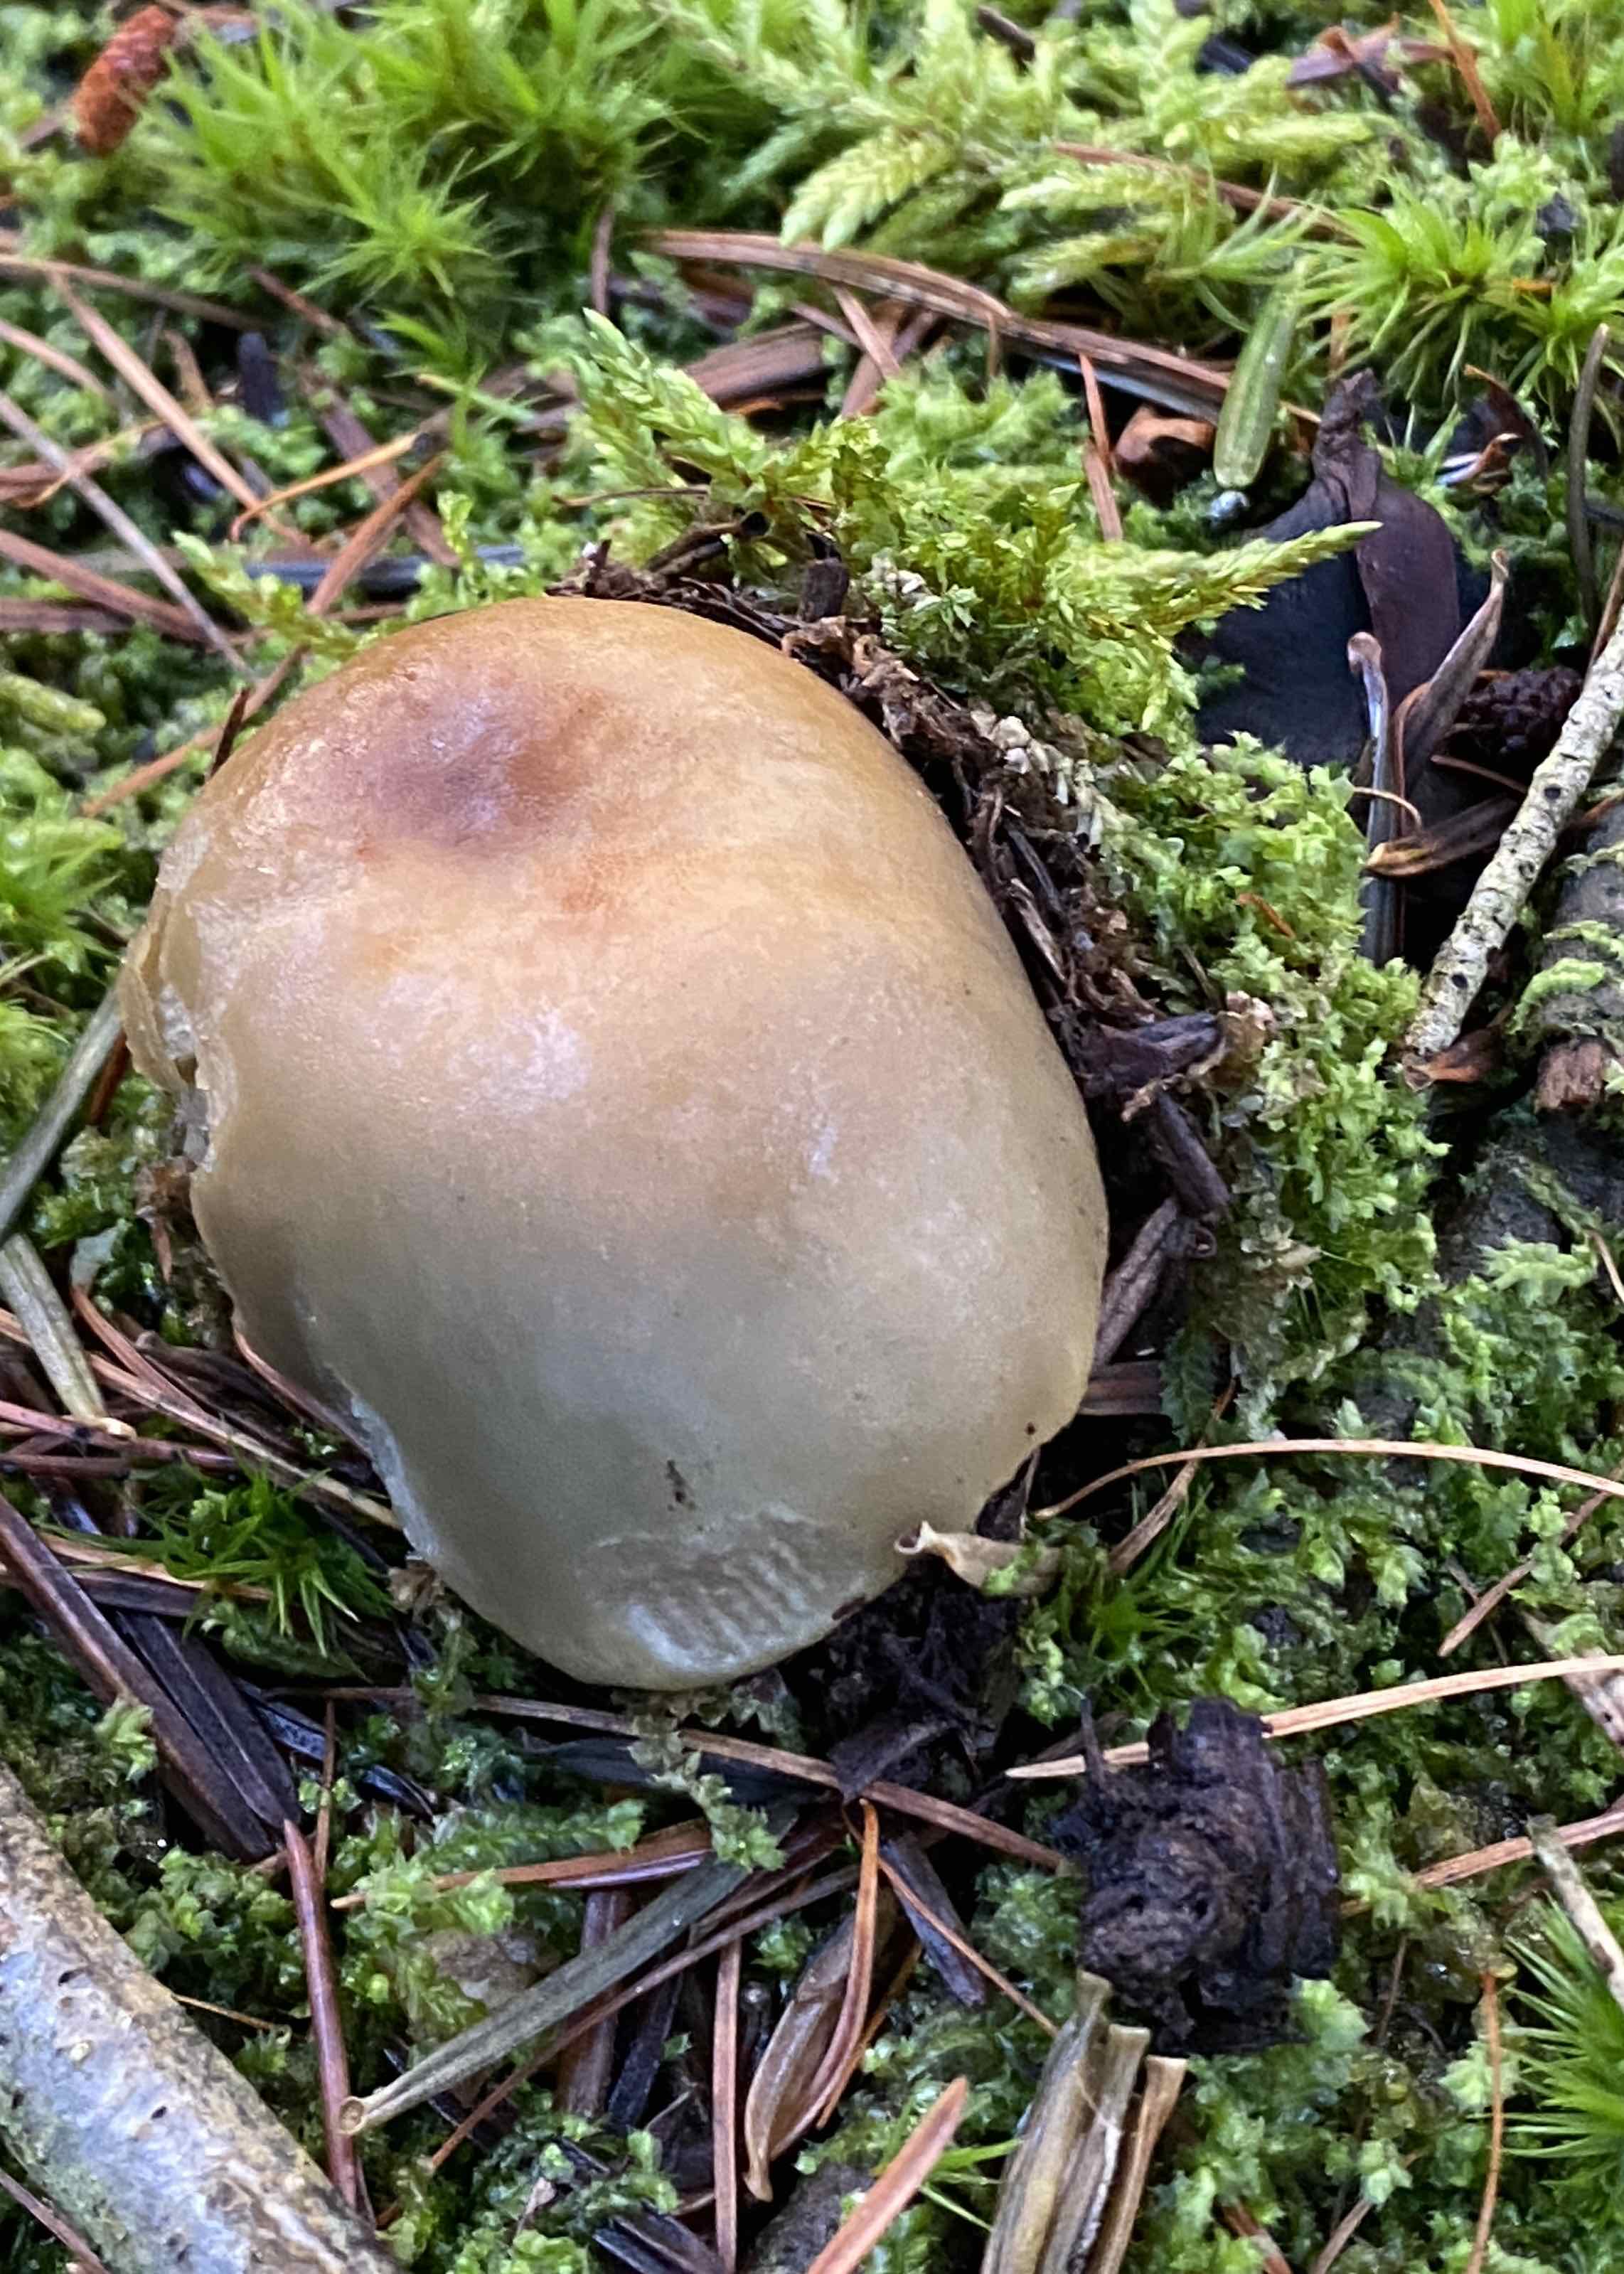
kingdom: Fungi
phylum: Basidiomycota
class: Agaricomycetes
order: Russulales
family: Russulaceae
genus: Russula
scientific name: Russula
